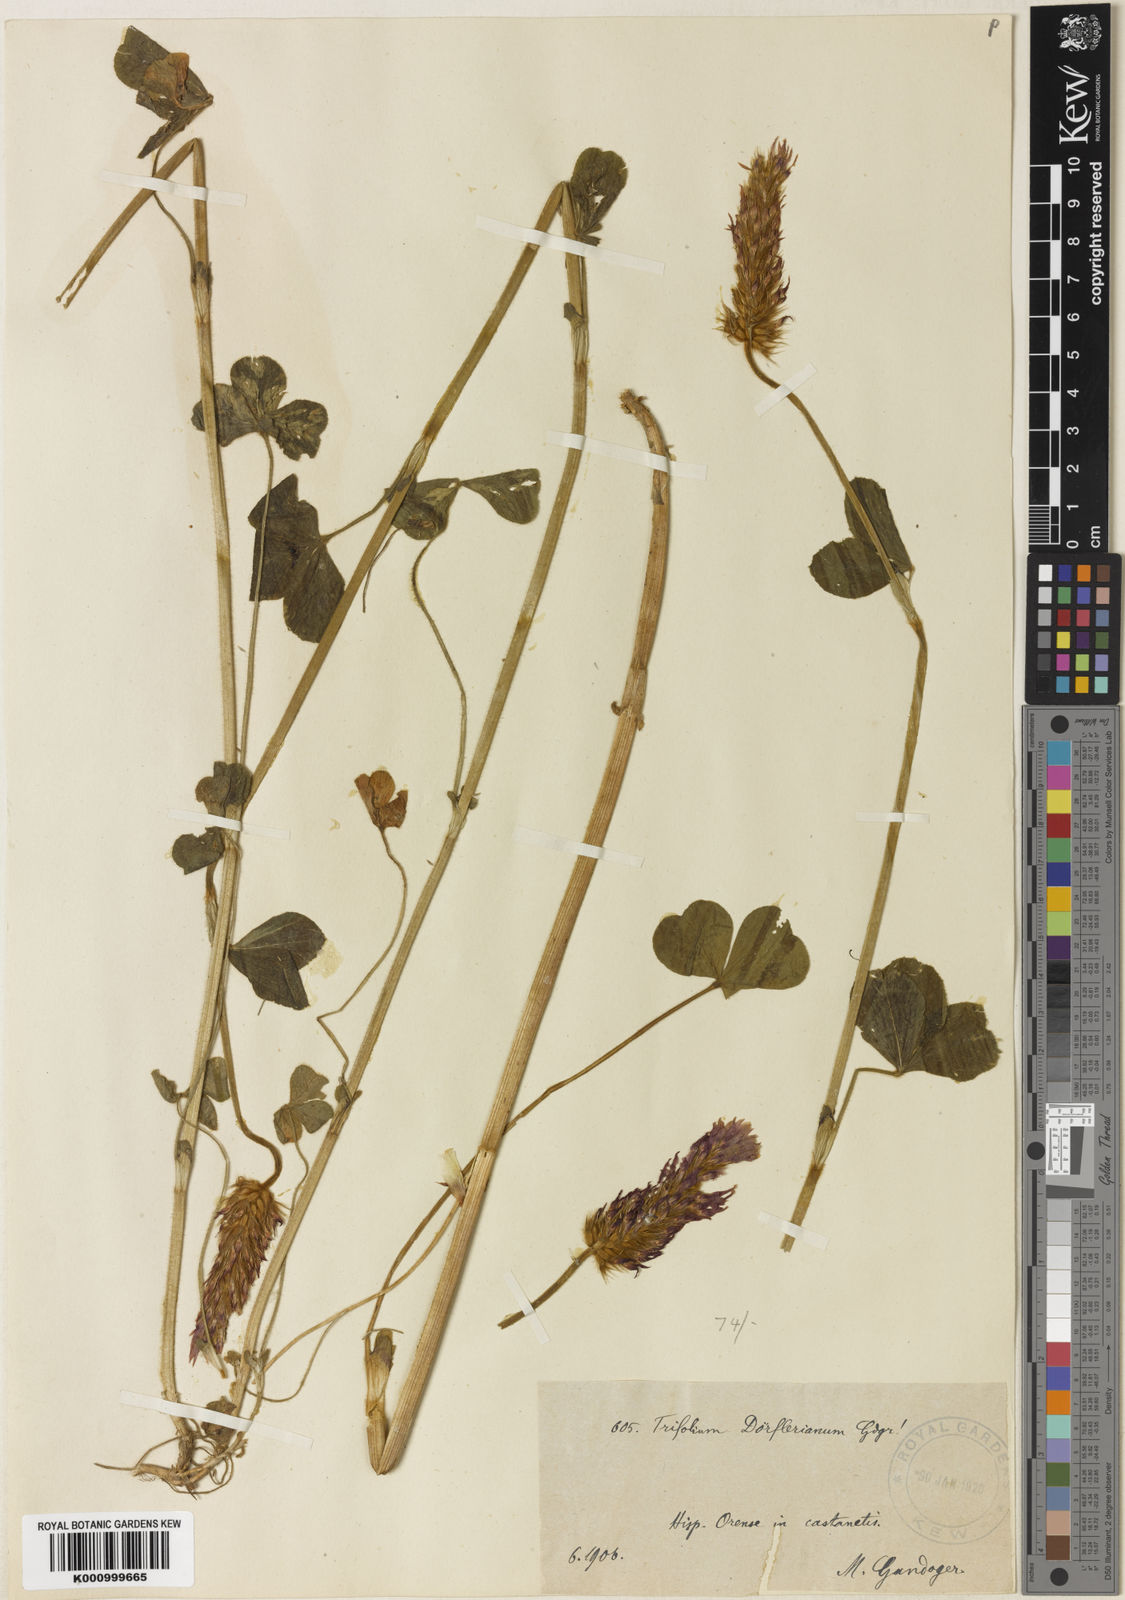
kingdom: Plantae
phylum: Tracheophyta
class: Magnoliopsida
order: Fabales
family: Fabaceae
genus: Trifolium
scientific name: Trifolium
